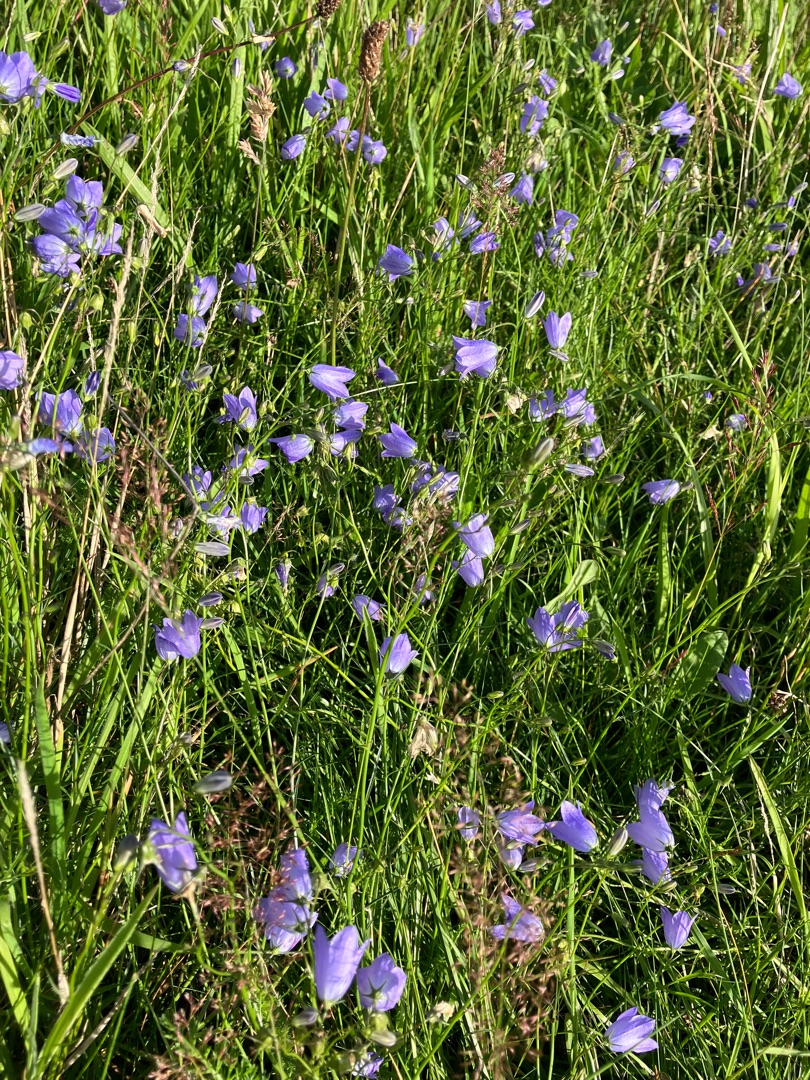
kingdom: Plantae
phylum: Tracheophyta
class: Magnoliopsida
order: Asterales
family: Campanulaceae
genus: Campanula
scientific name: Campanula rotundifolia
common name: Liden klokke
